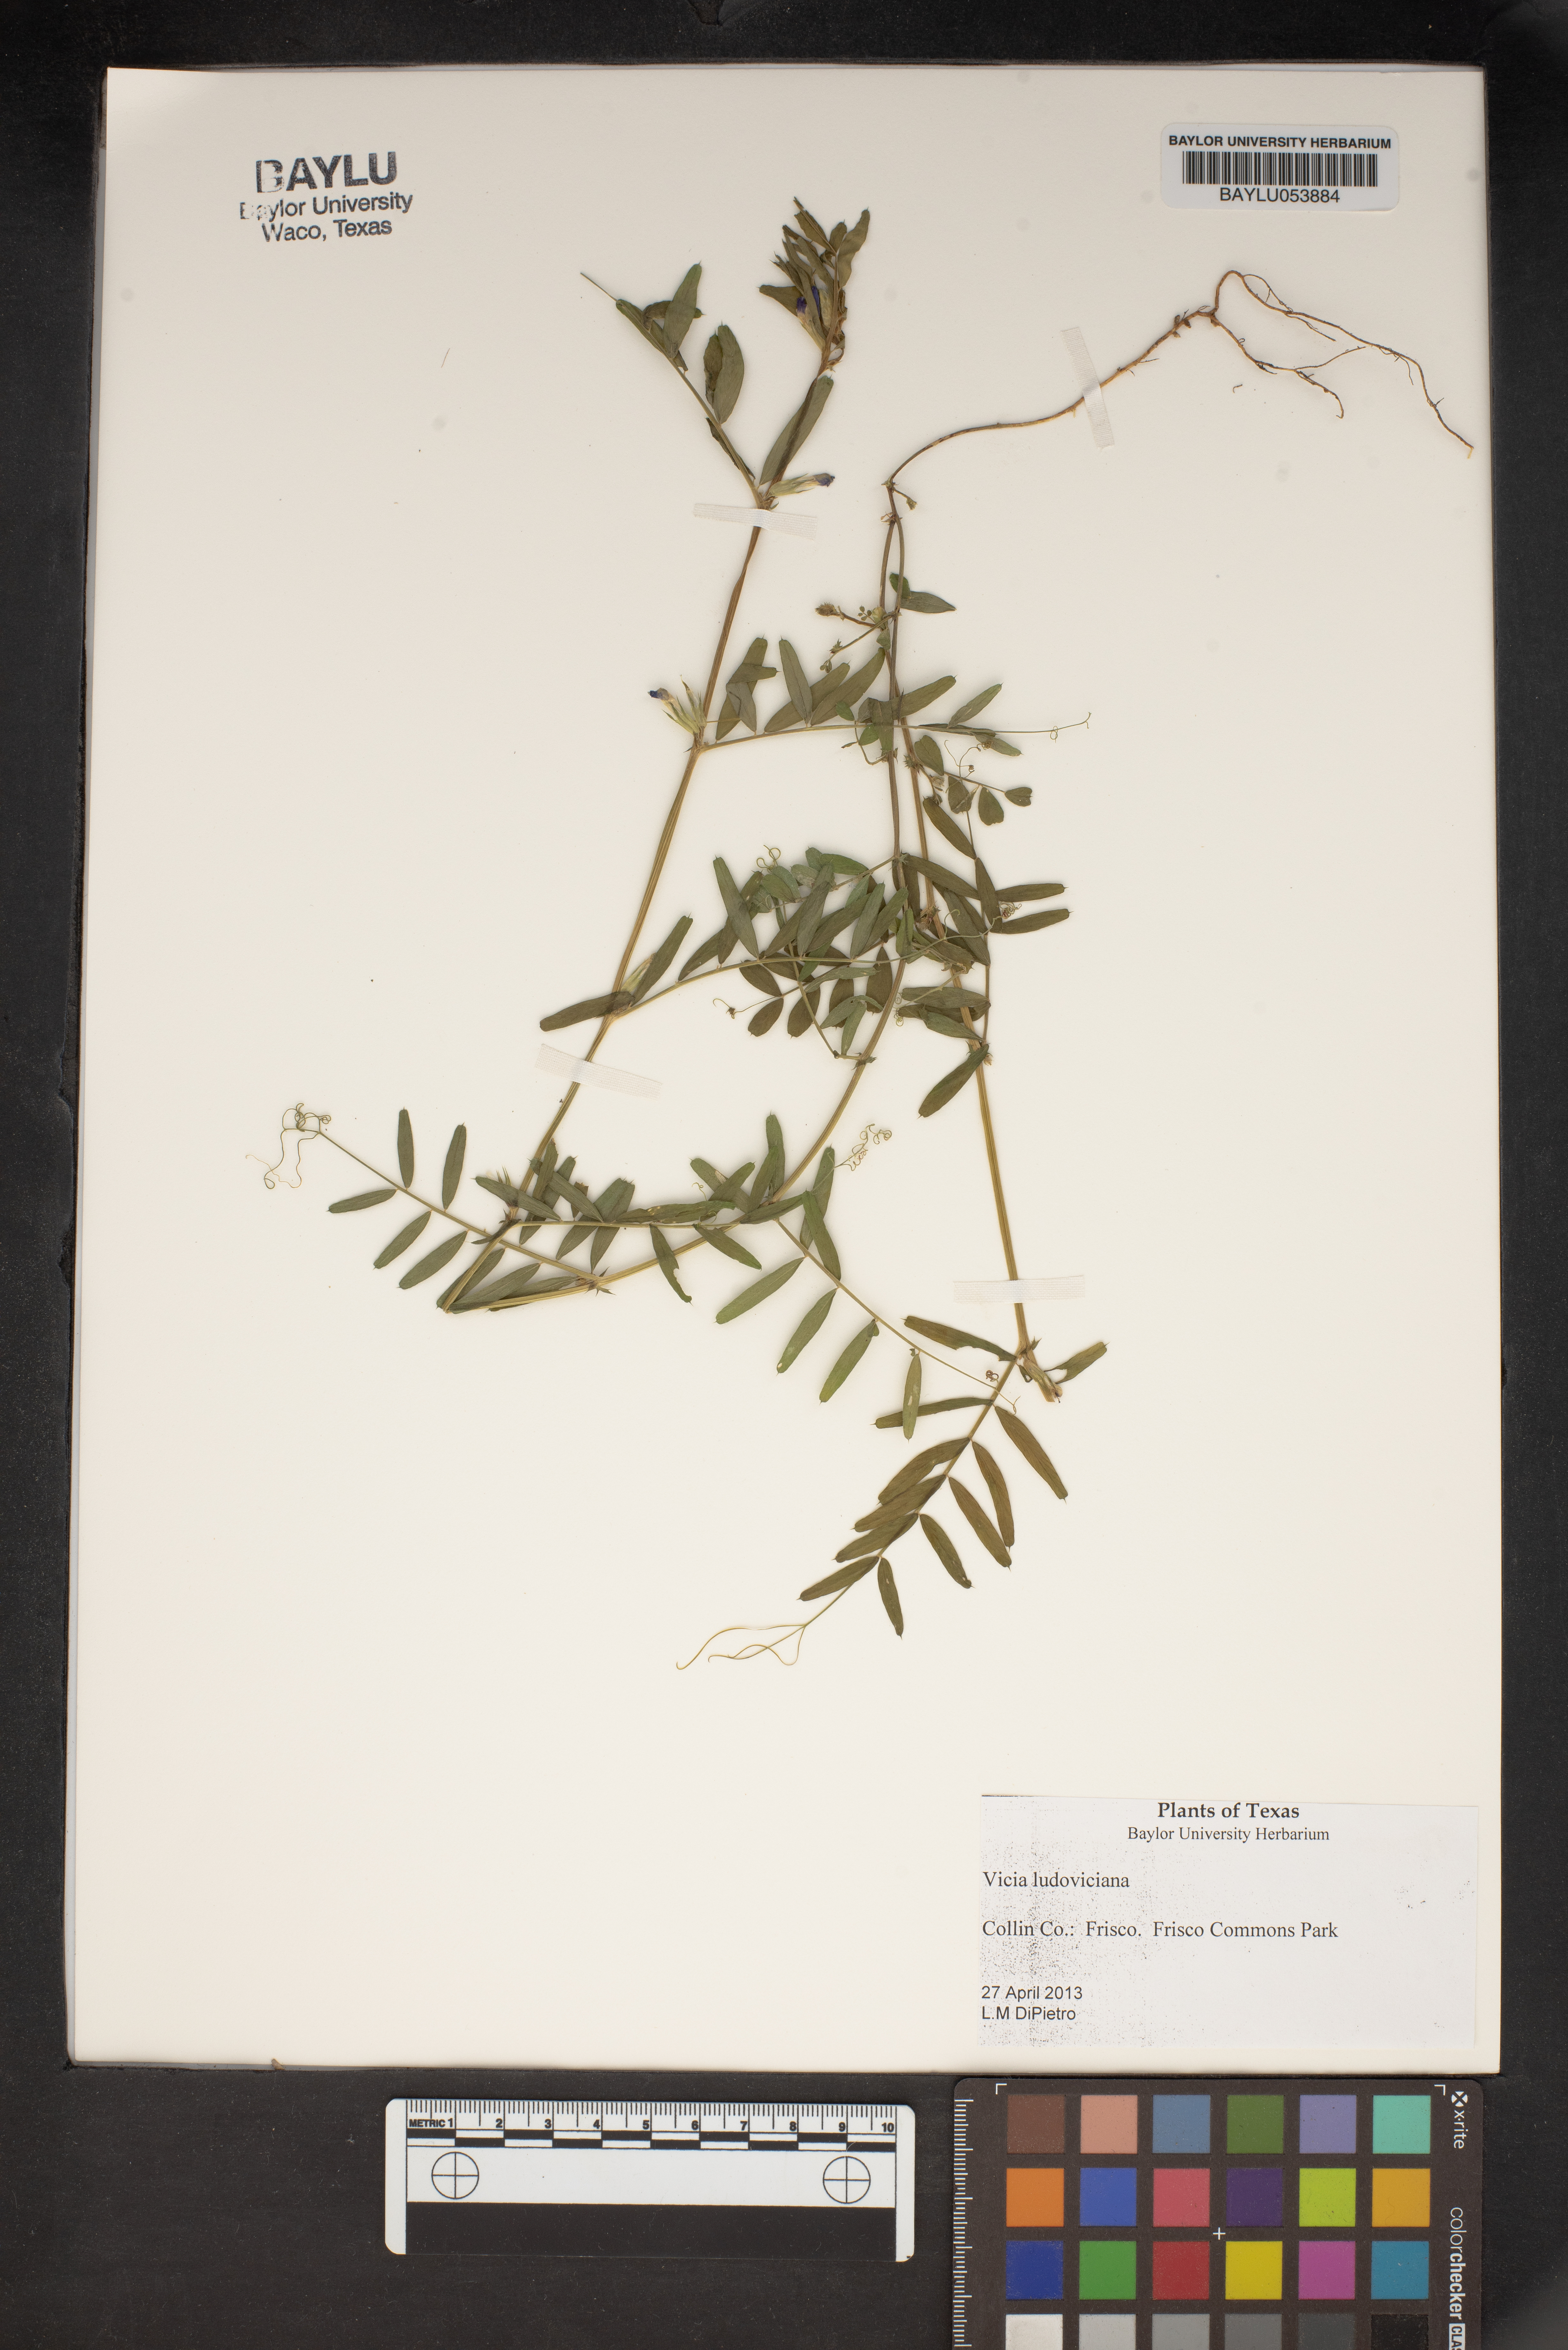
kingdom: Plantae
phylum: Tracheophyta
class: Magnoliopsida
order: Fabales
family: Fabaceae
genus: Vicia
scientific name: Vicia ludoviciana
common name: Louisiana vetch
